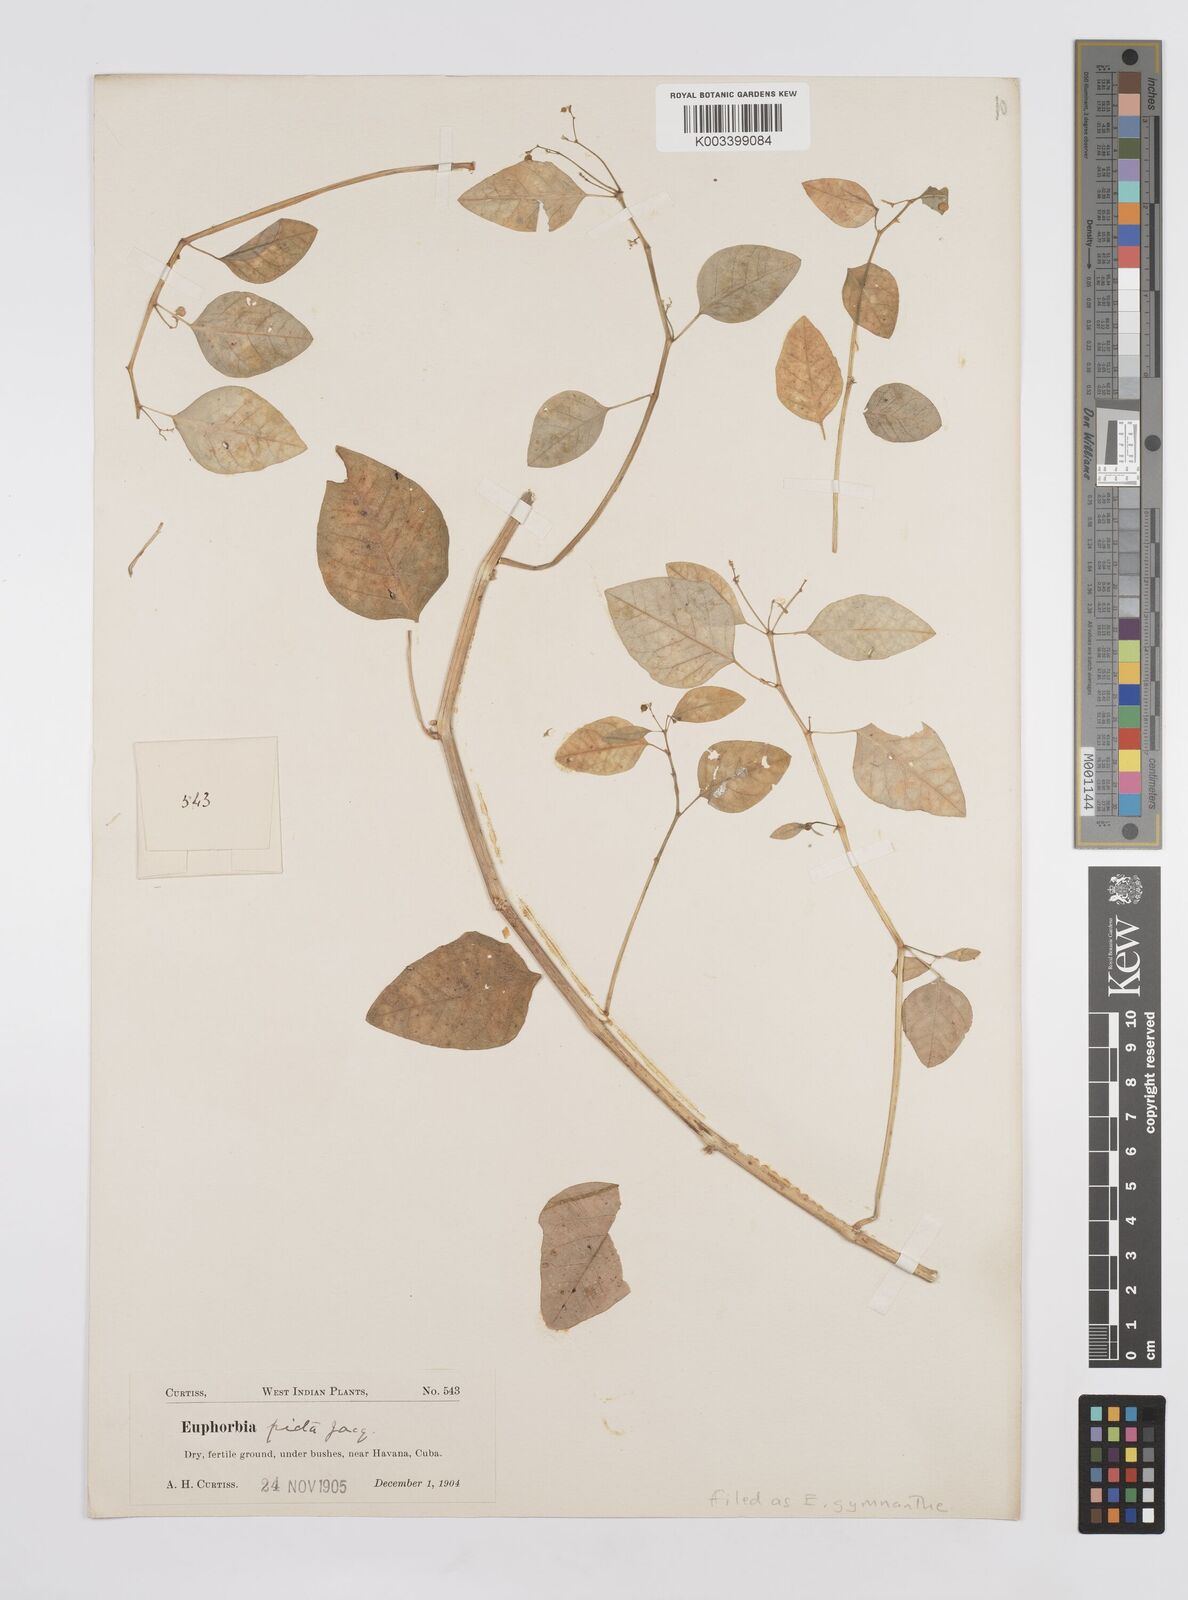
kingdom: Plantae
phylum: Tracheophyta
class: Magnoliopsida
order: Malpighiales
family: Euphorbiaceae
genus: Euphorbia
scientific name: Euphorbia
